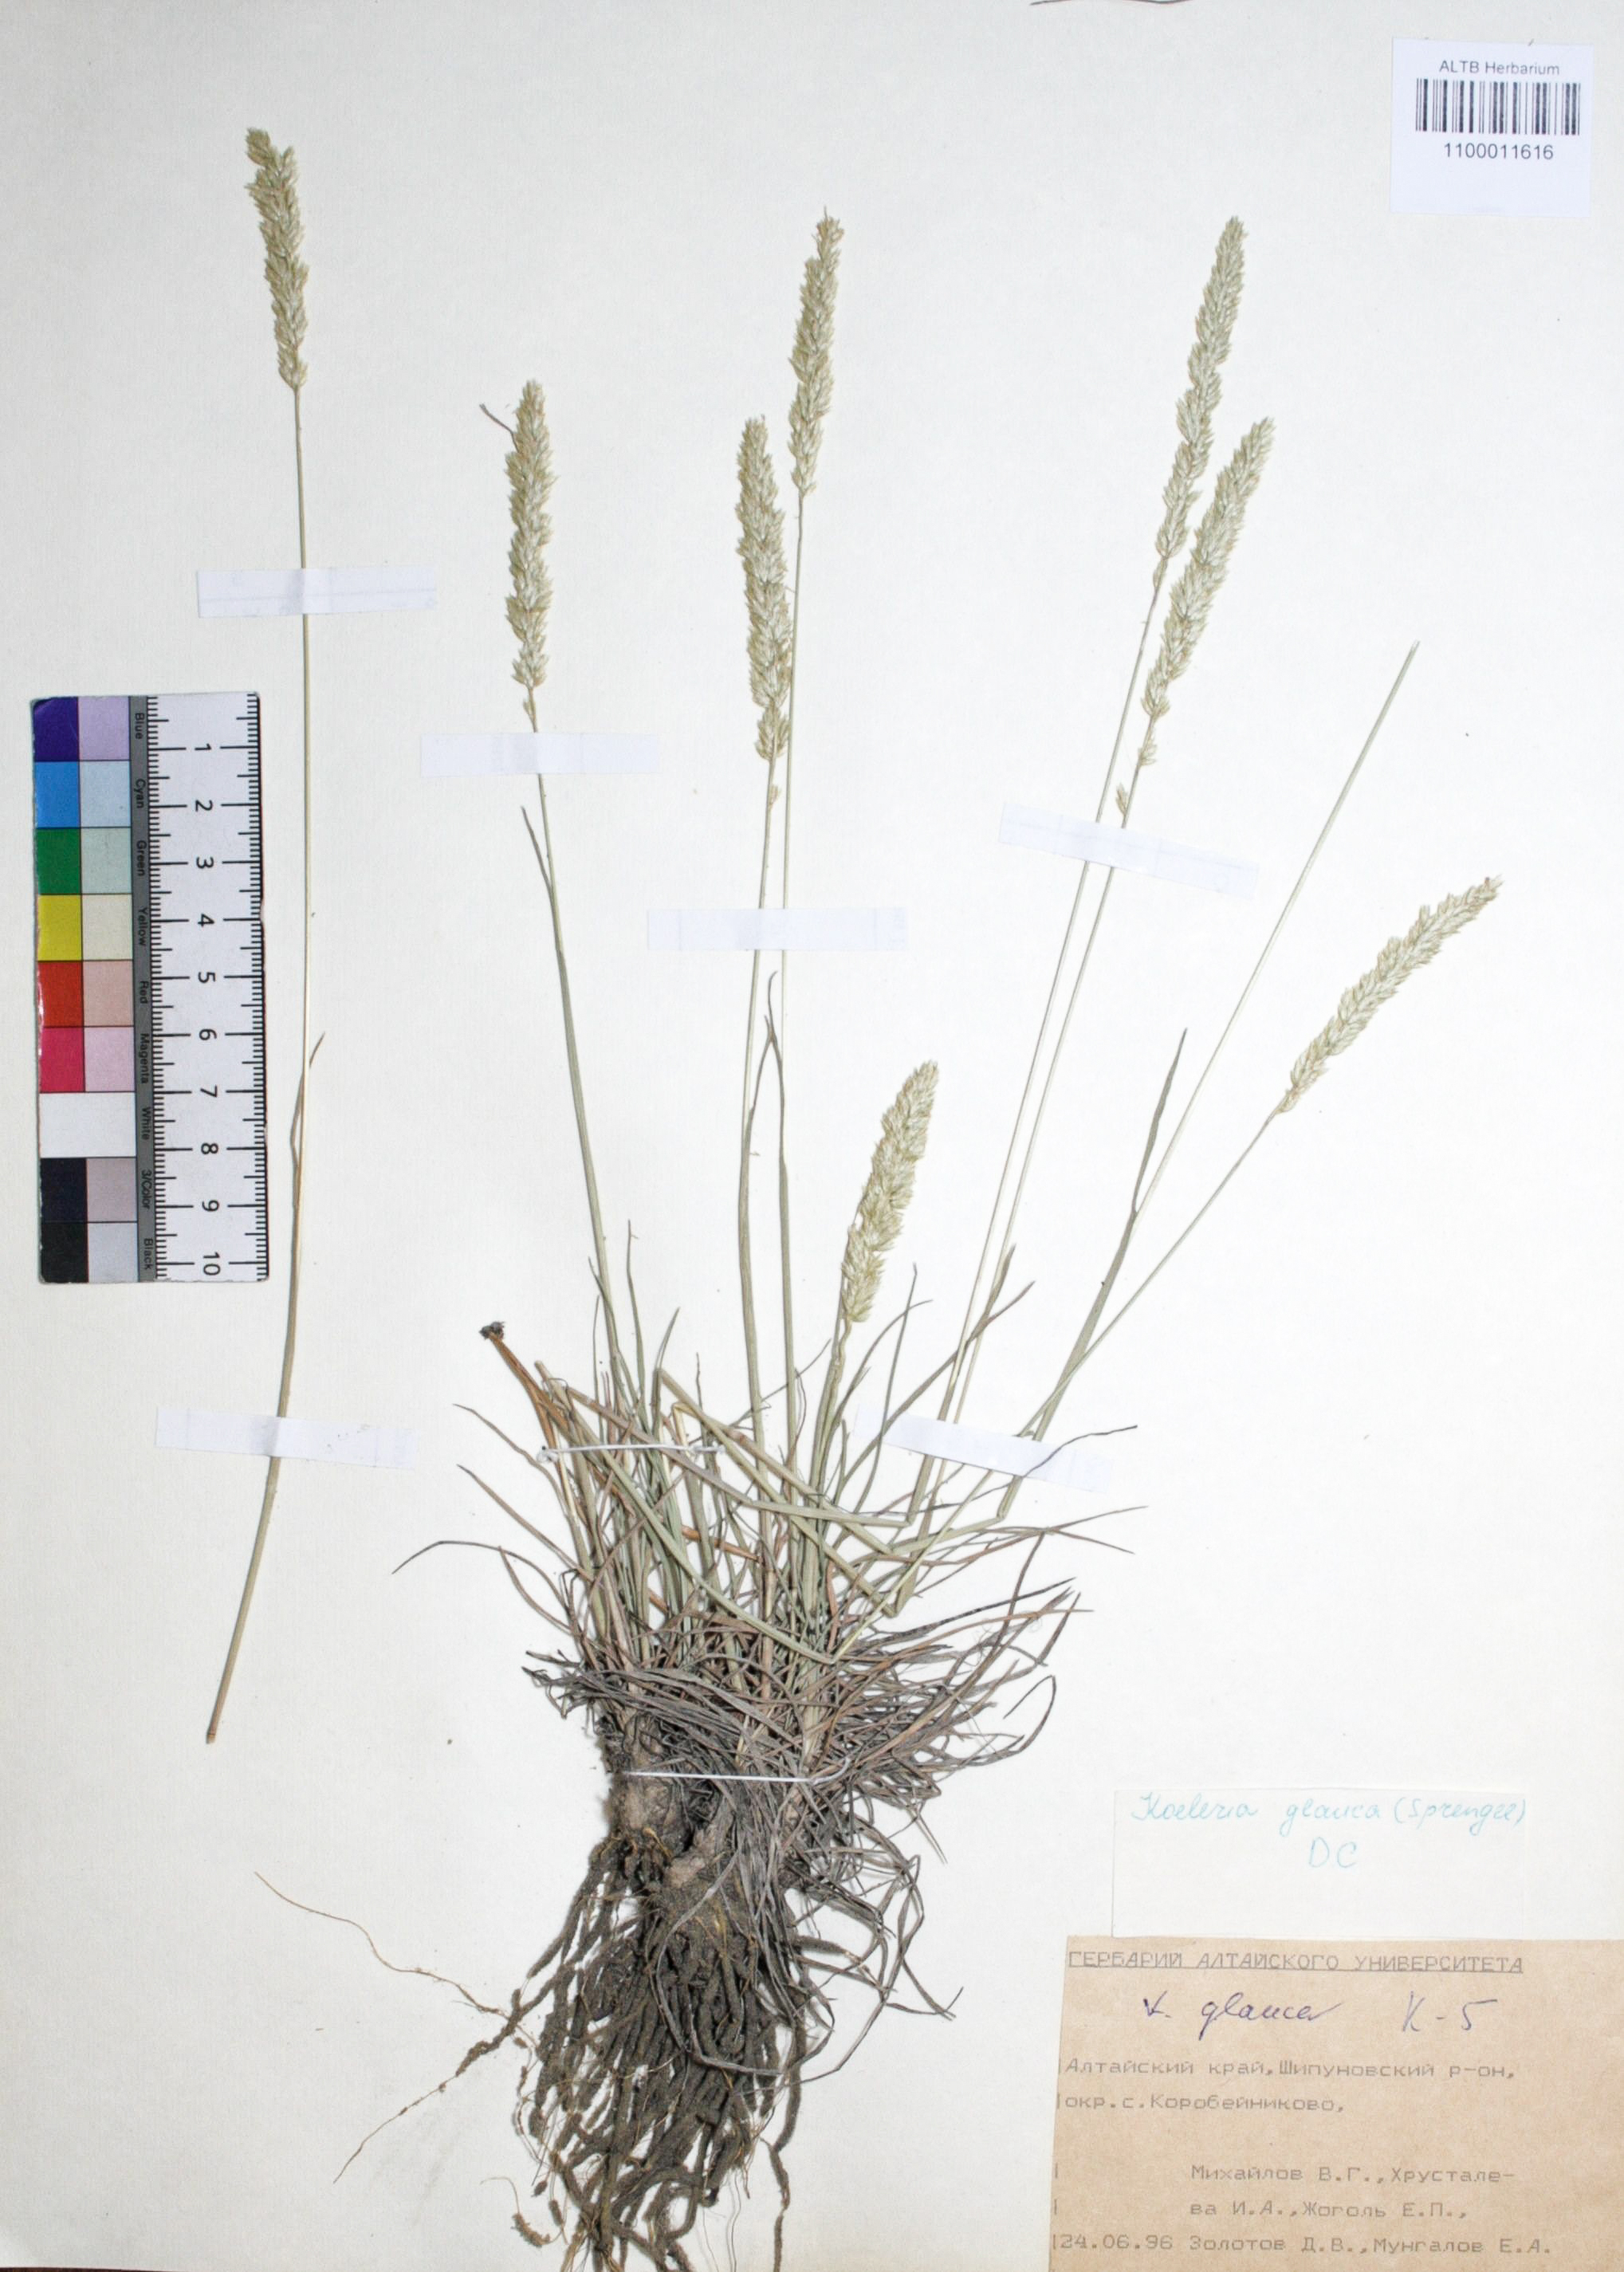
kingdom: Plantae
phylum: Tracheophyta
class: Liliopsida
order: Poales
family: Poaceae
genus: Koeleria
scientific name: Koeleria glauca
